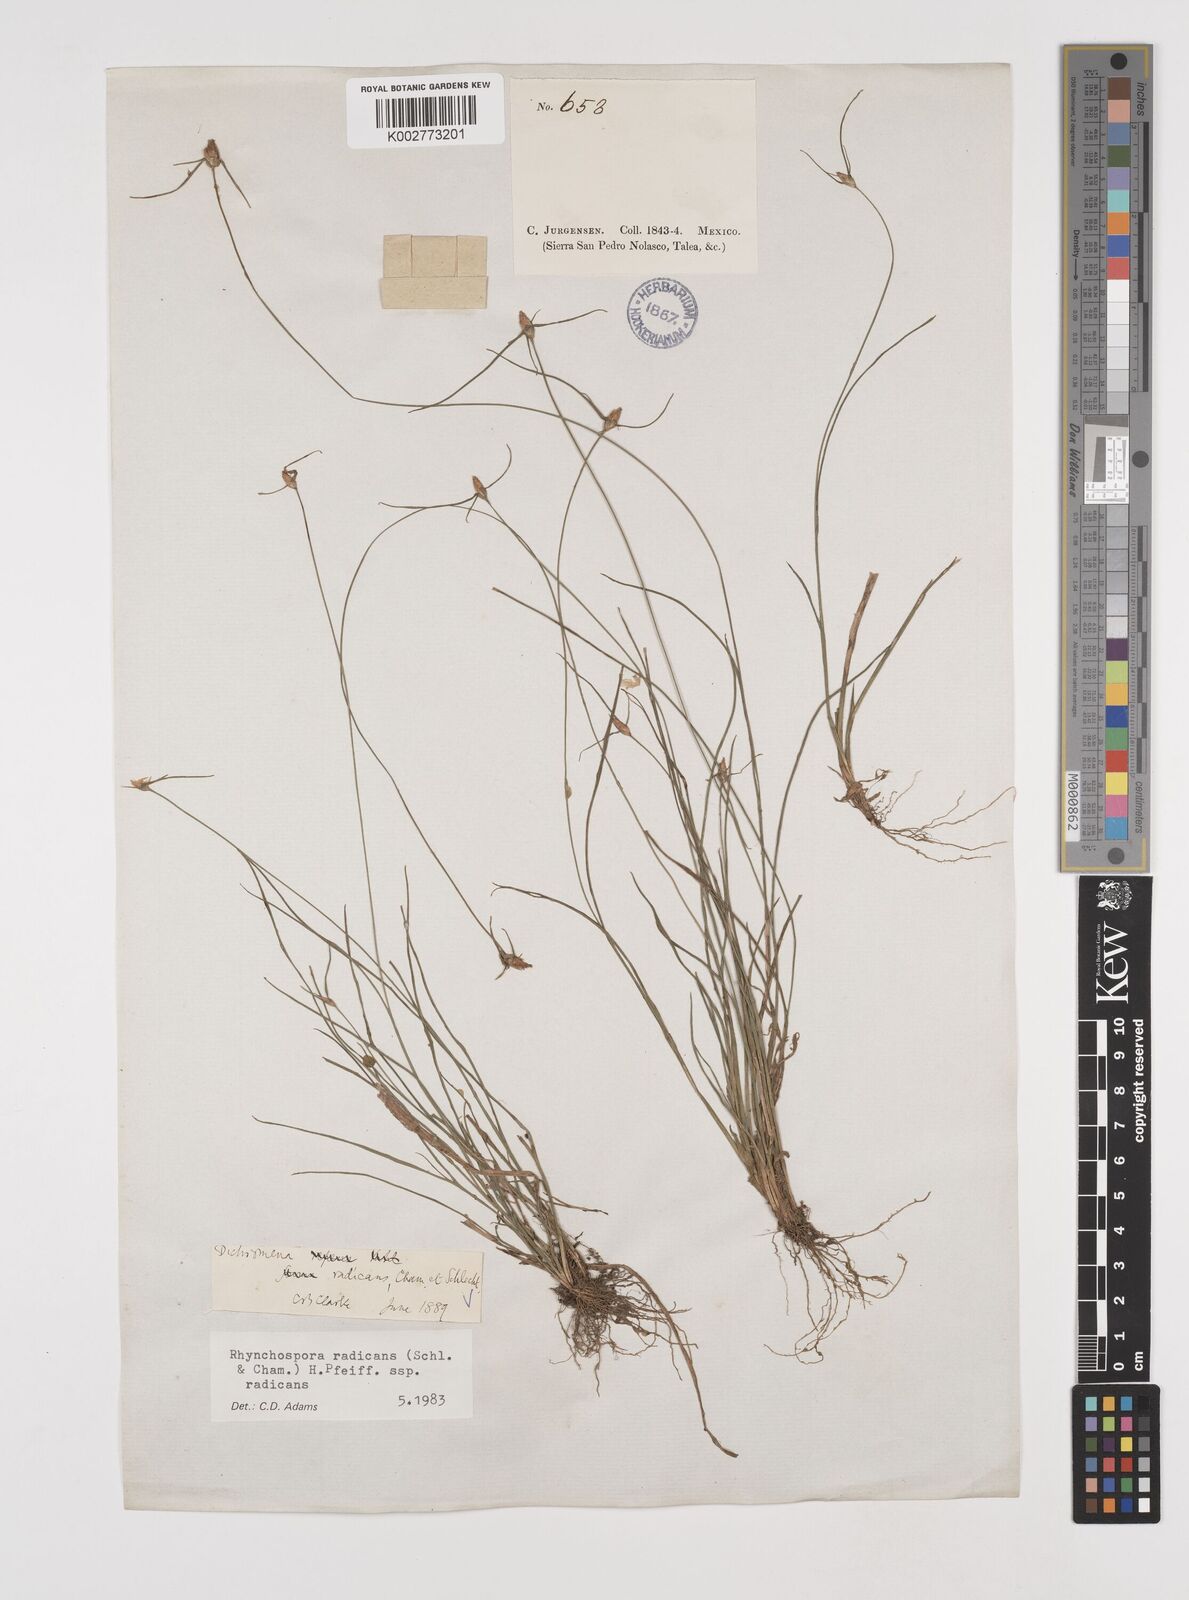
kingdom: Plantae
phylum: Tracheophyta
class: Liliopsida
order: Poales
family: Cyperaceae
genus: Rhynchospora
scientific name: Rhynchospora radicans
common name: Tropical whitetop
